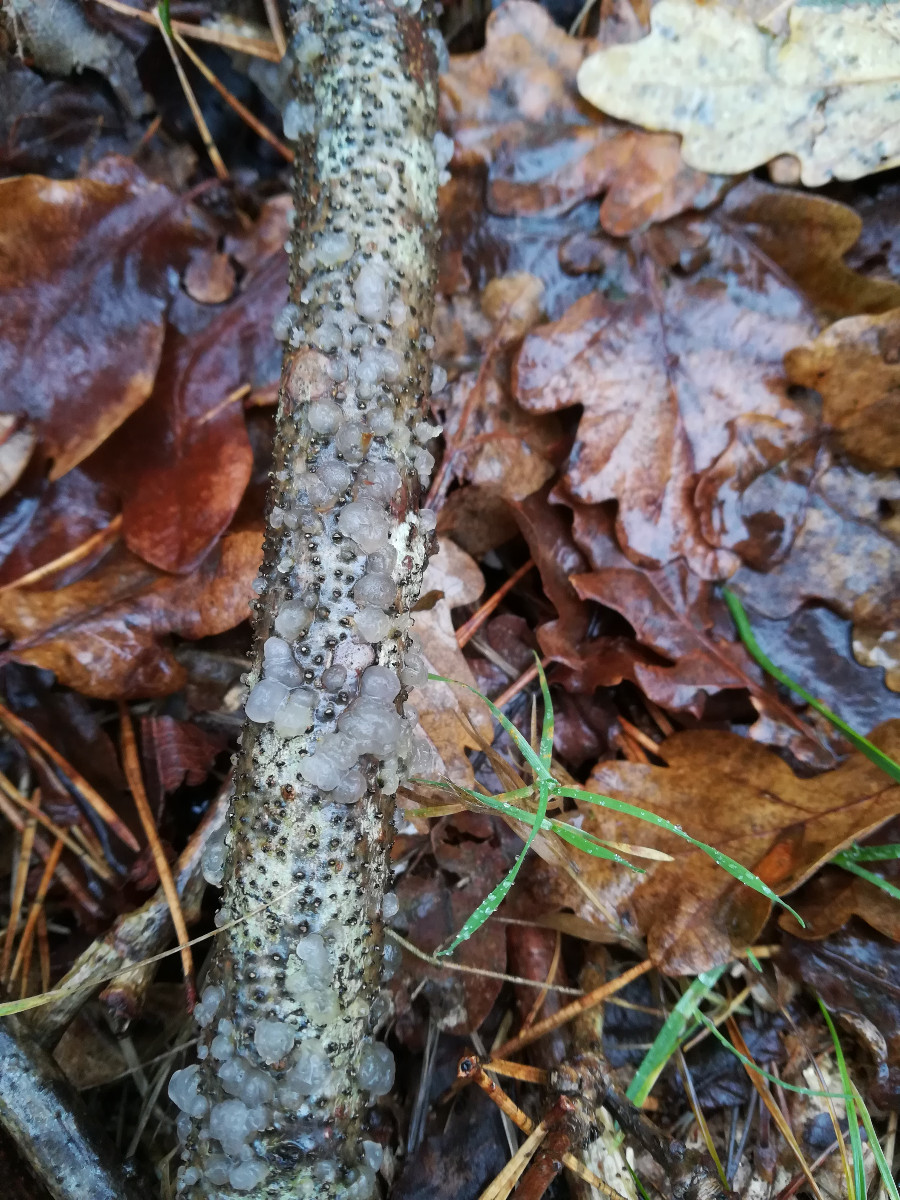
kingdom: Fungi
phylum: Basidiomycota
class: Agaricomycetes
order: Auriculariales
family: Hyaloriaceae
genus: Myxarium
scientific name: Myxarium nucleatum
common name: klar bævretop
